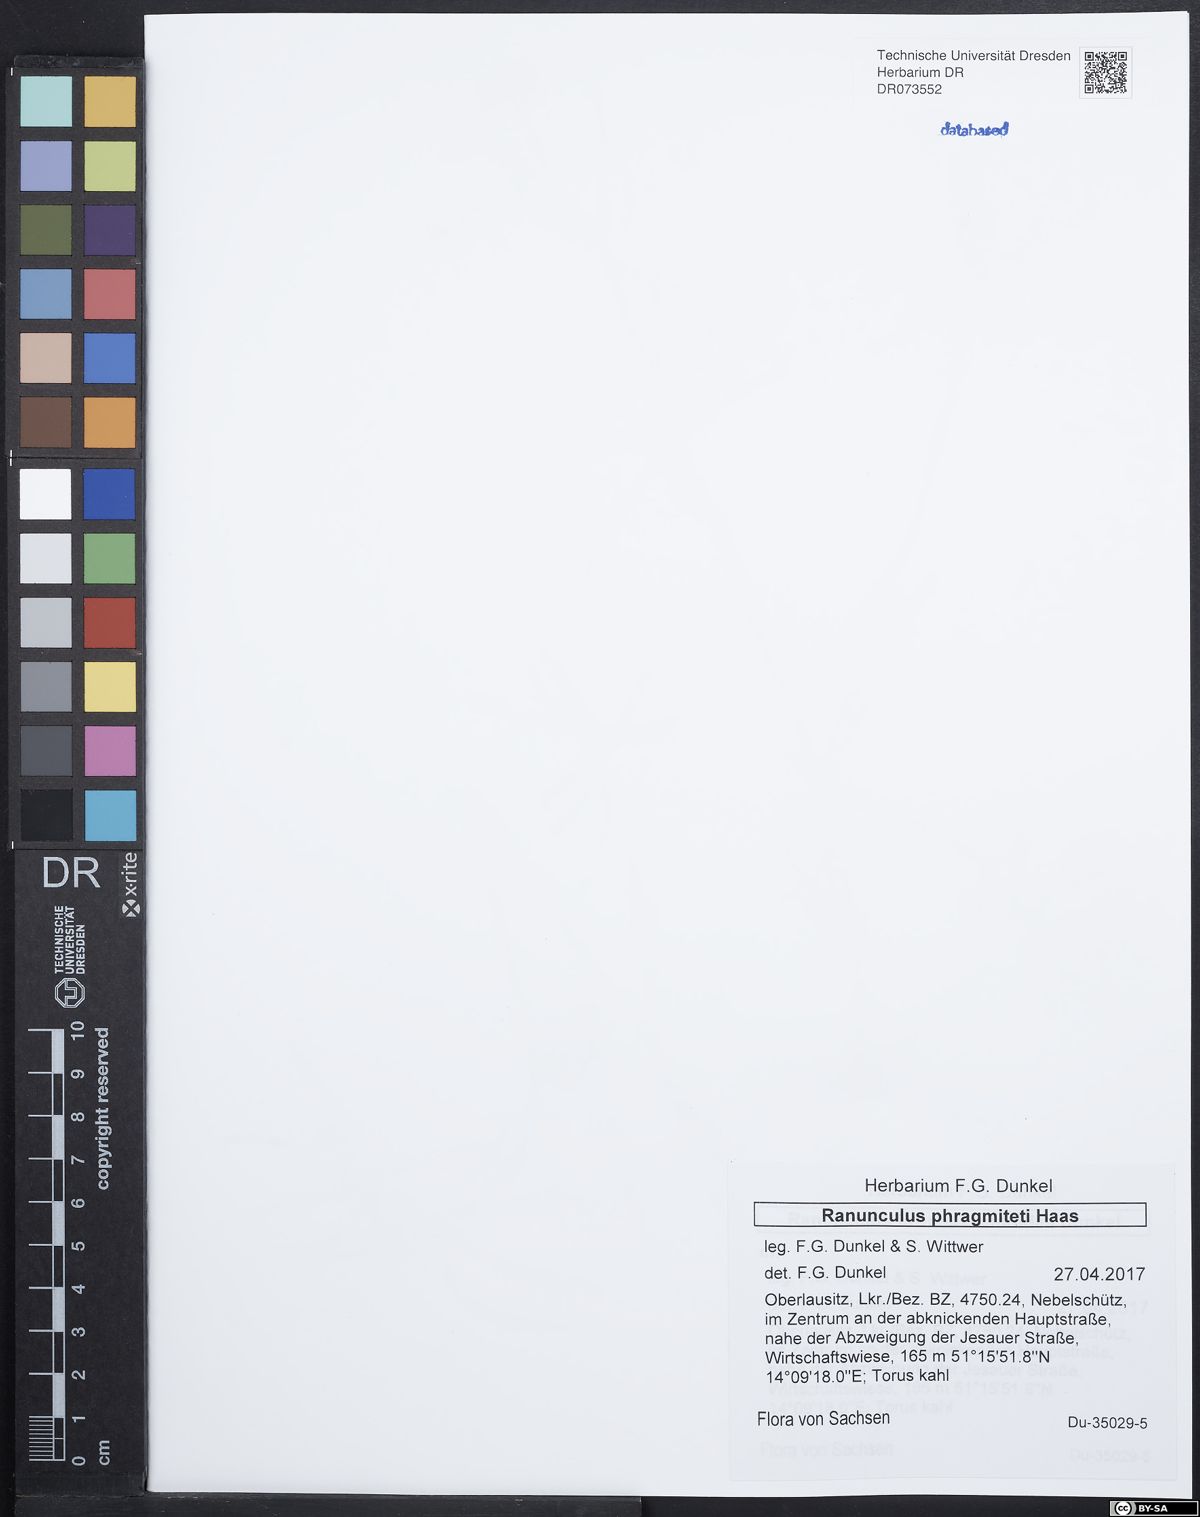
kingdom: Plantae
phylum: Tracheophyta
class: Magnoliopsida
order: Ranunculales
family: Ranunculaceae
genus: Ranunculus
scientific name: Ranunculus phragmiteti
